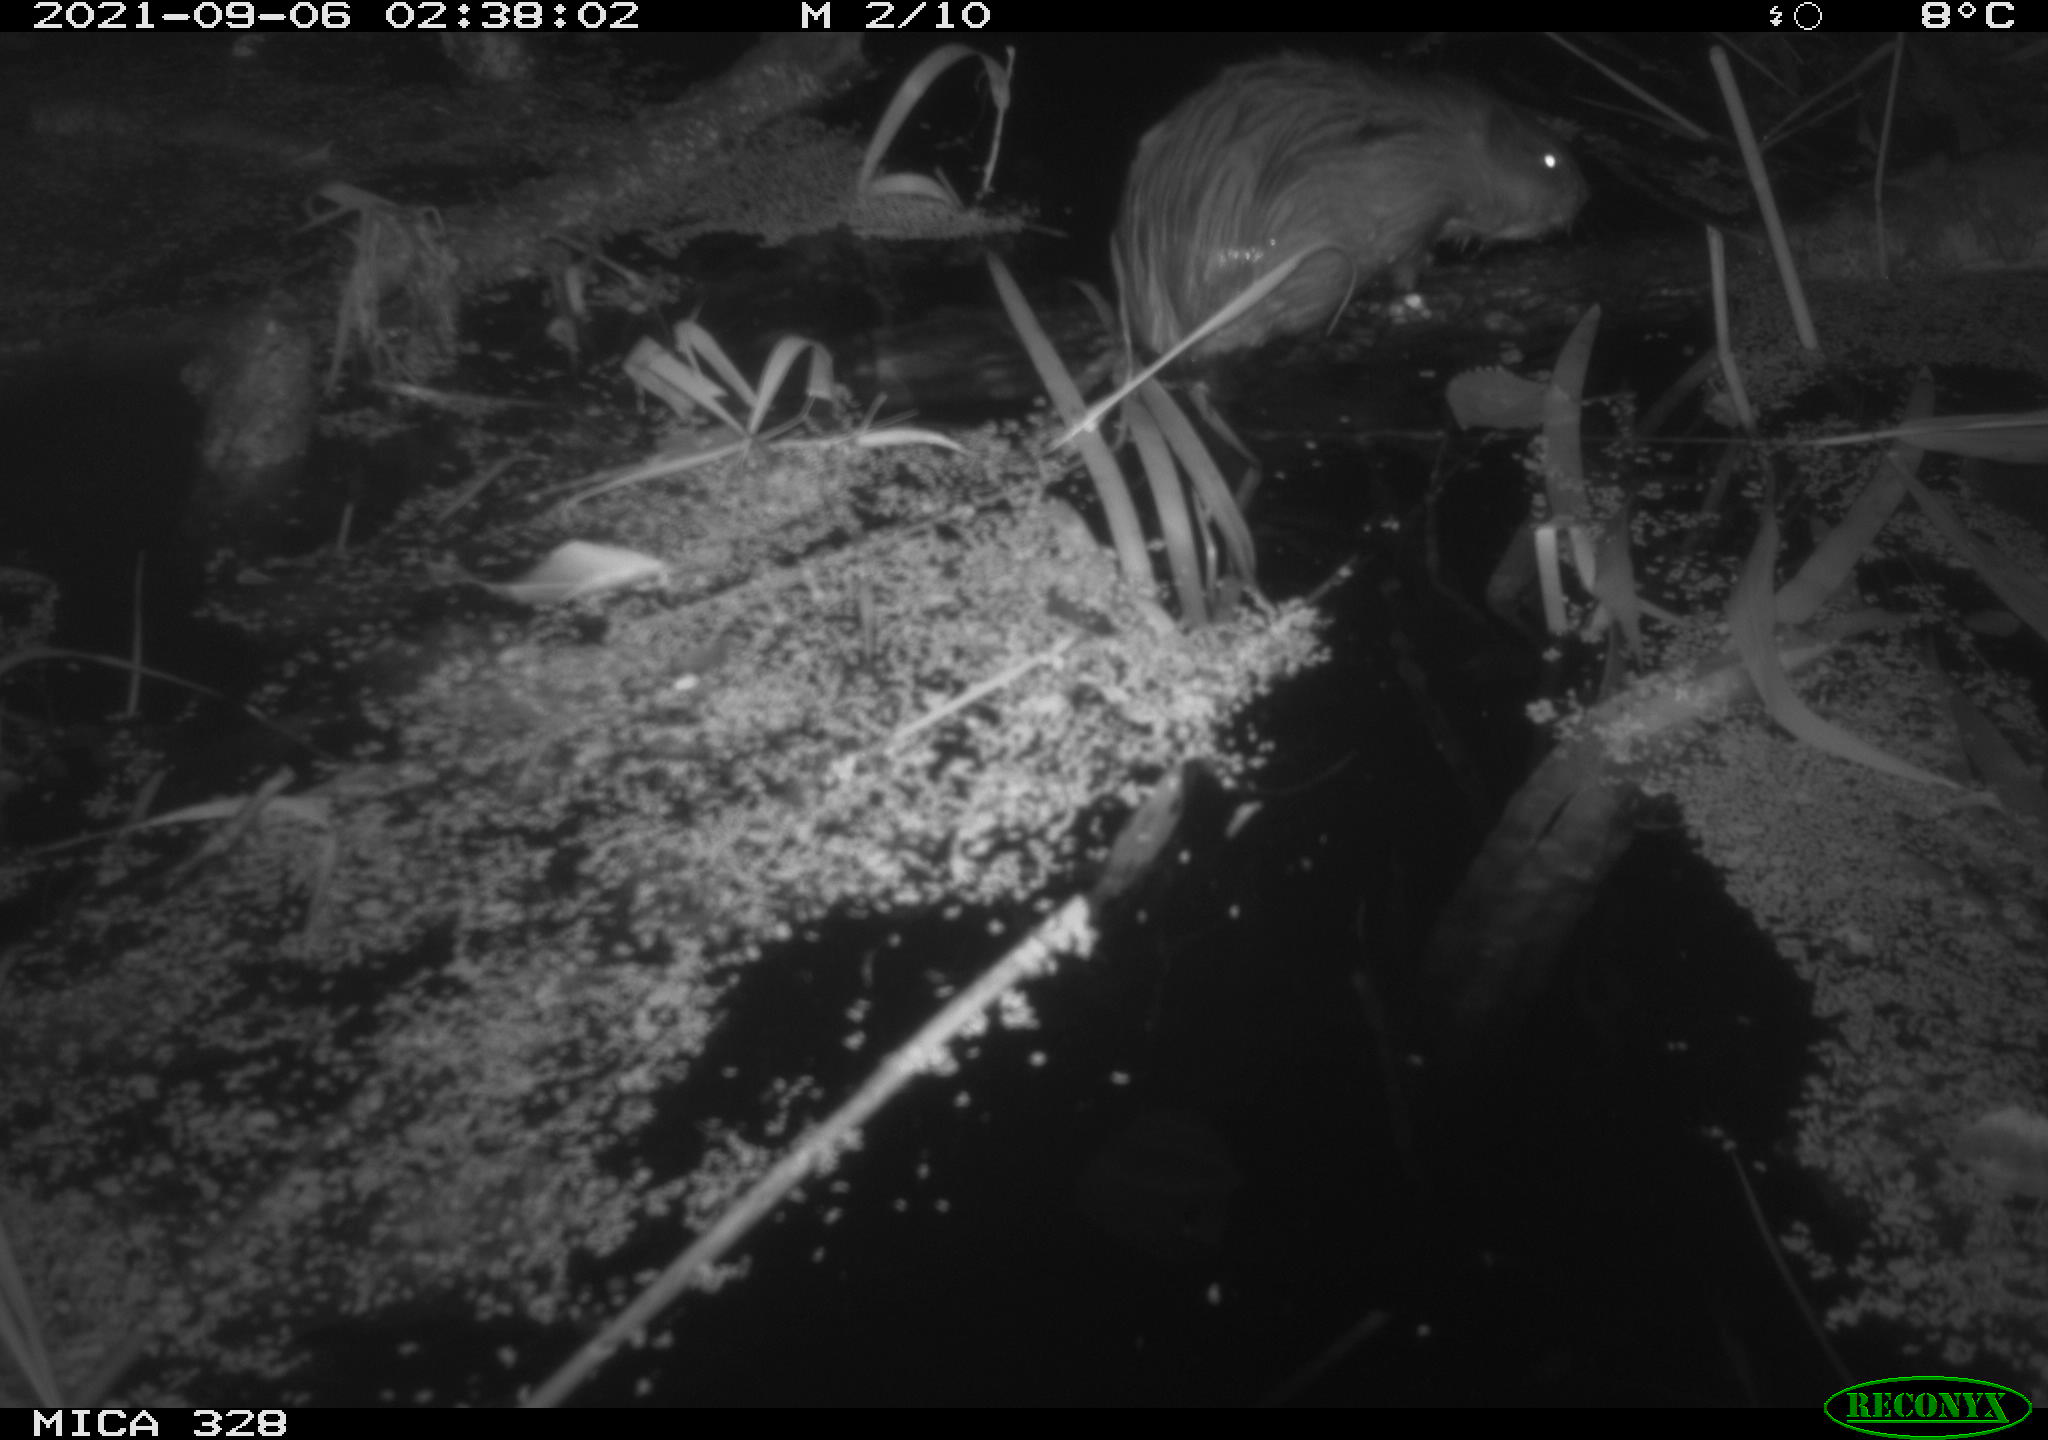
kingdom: Animalia
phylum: Chordata
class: Mammalia
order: Rodentia
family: Cricetidae
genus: Ondatra
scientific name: Ondatra zibethicus
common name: Muskrat
